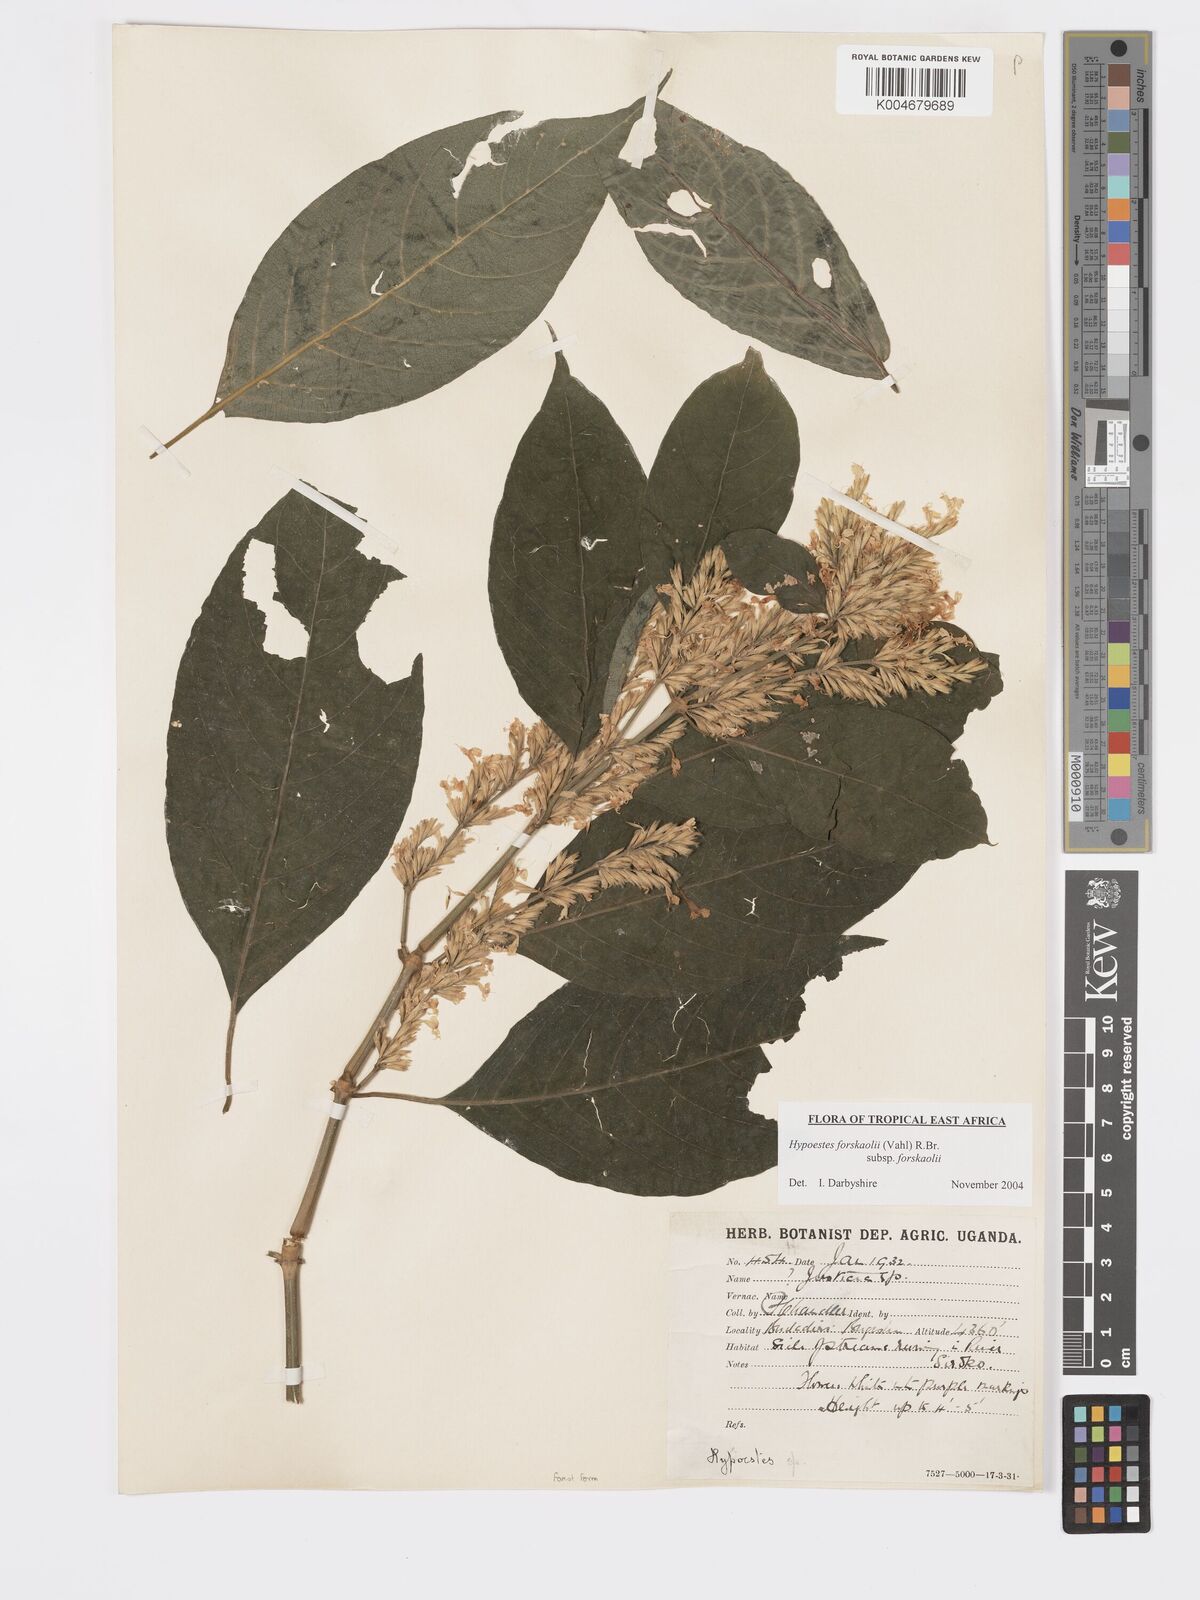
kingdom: Plantae
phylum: Tracheophyta
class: Magnoliopsida
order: Lamiales
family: Acanthaceae
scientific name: Acanthaceae
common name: Acanthaceae
